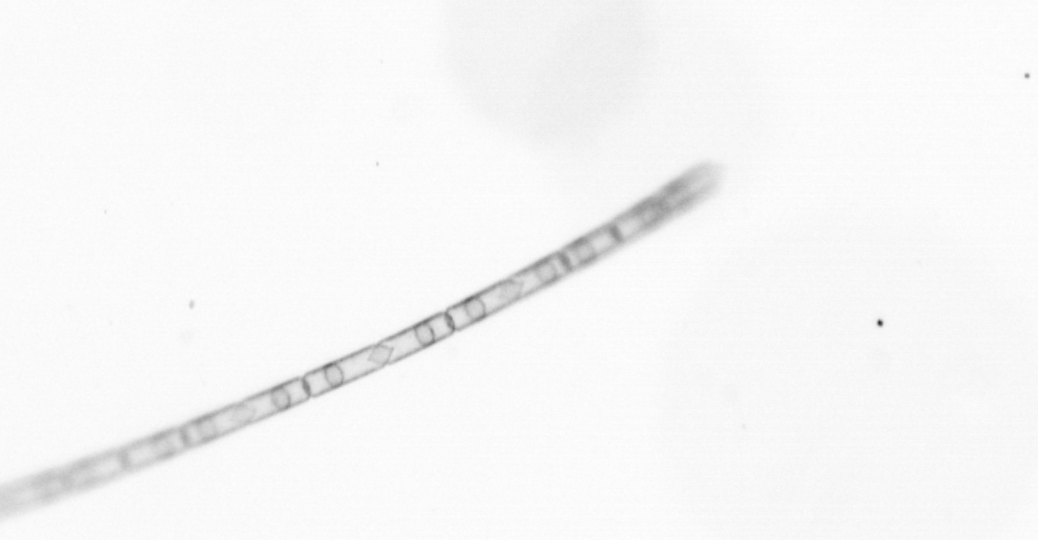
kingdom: Chromista
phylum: Ochrophyta
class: Bacillariophyceae
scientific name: Bacillariophyceae
